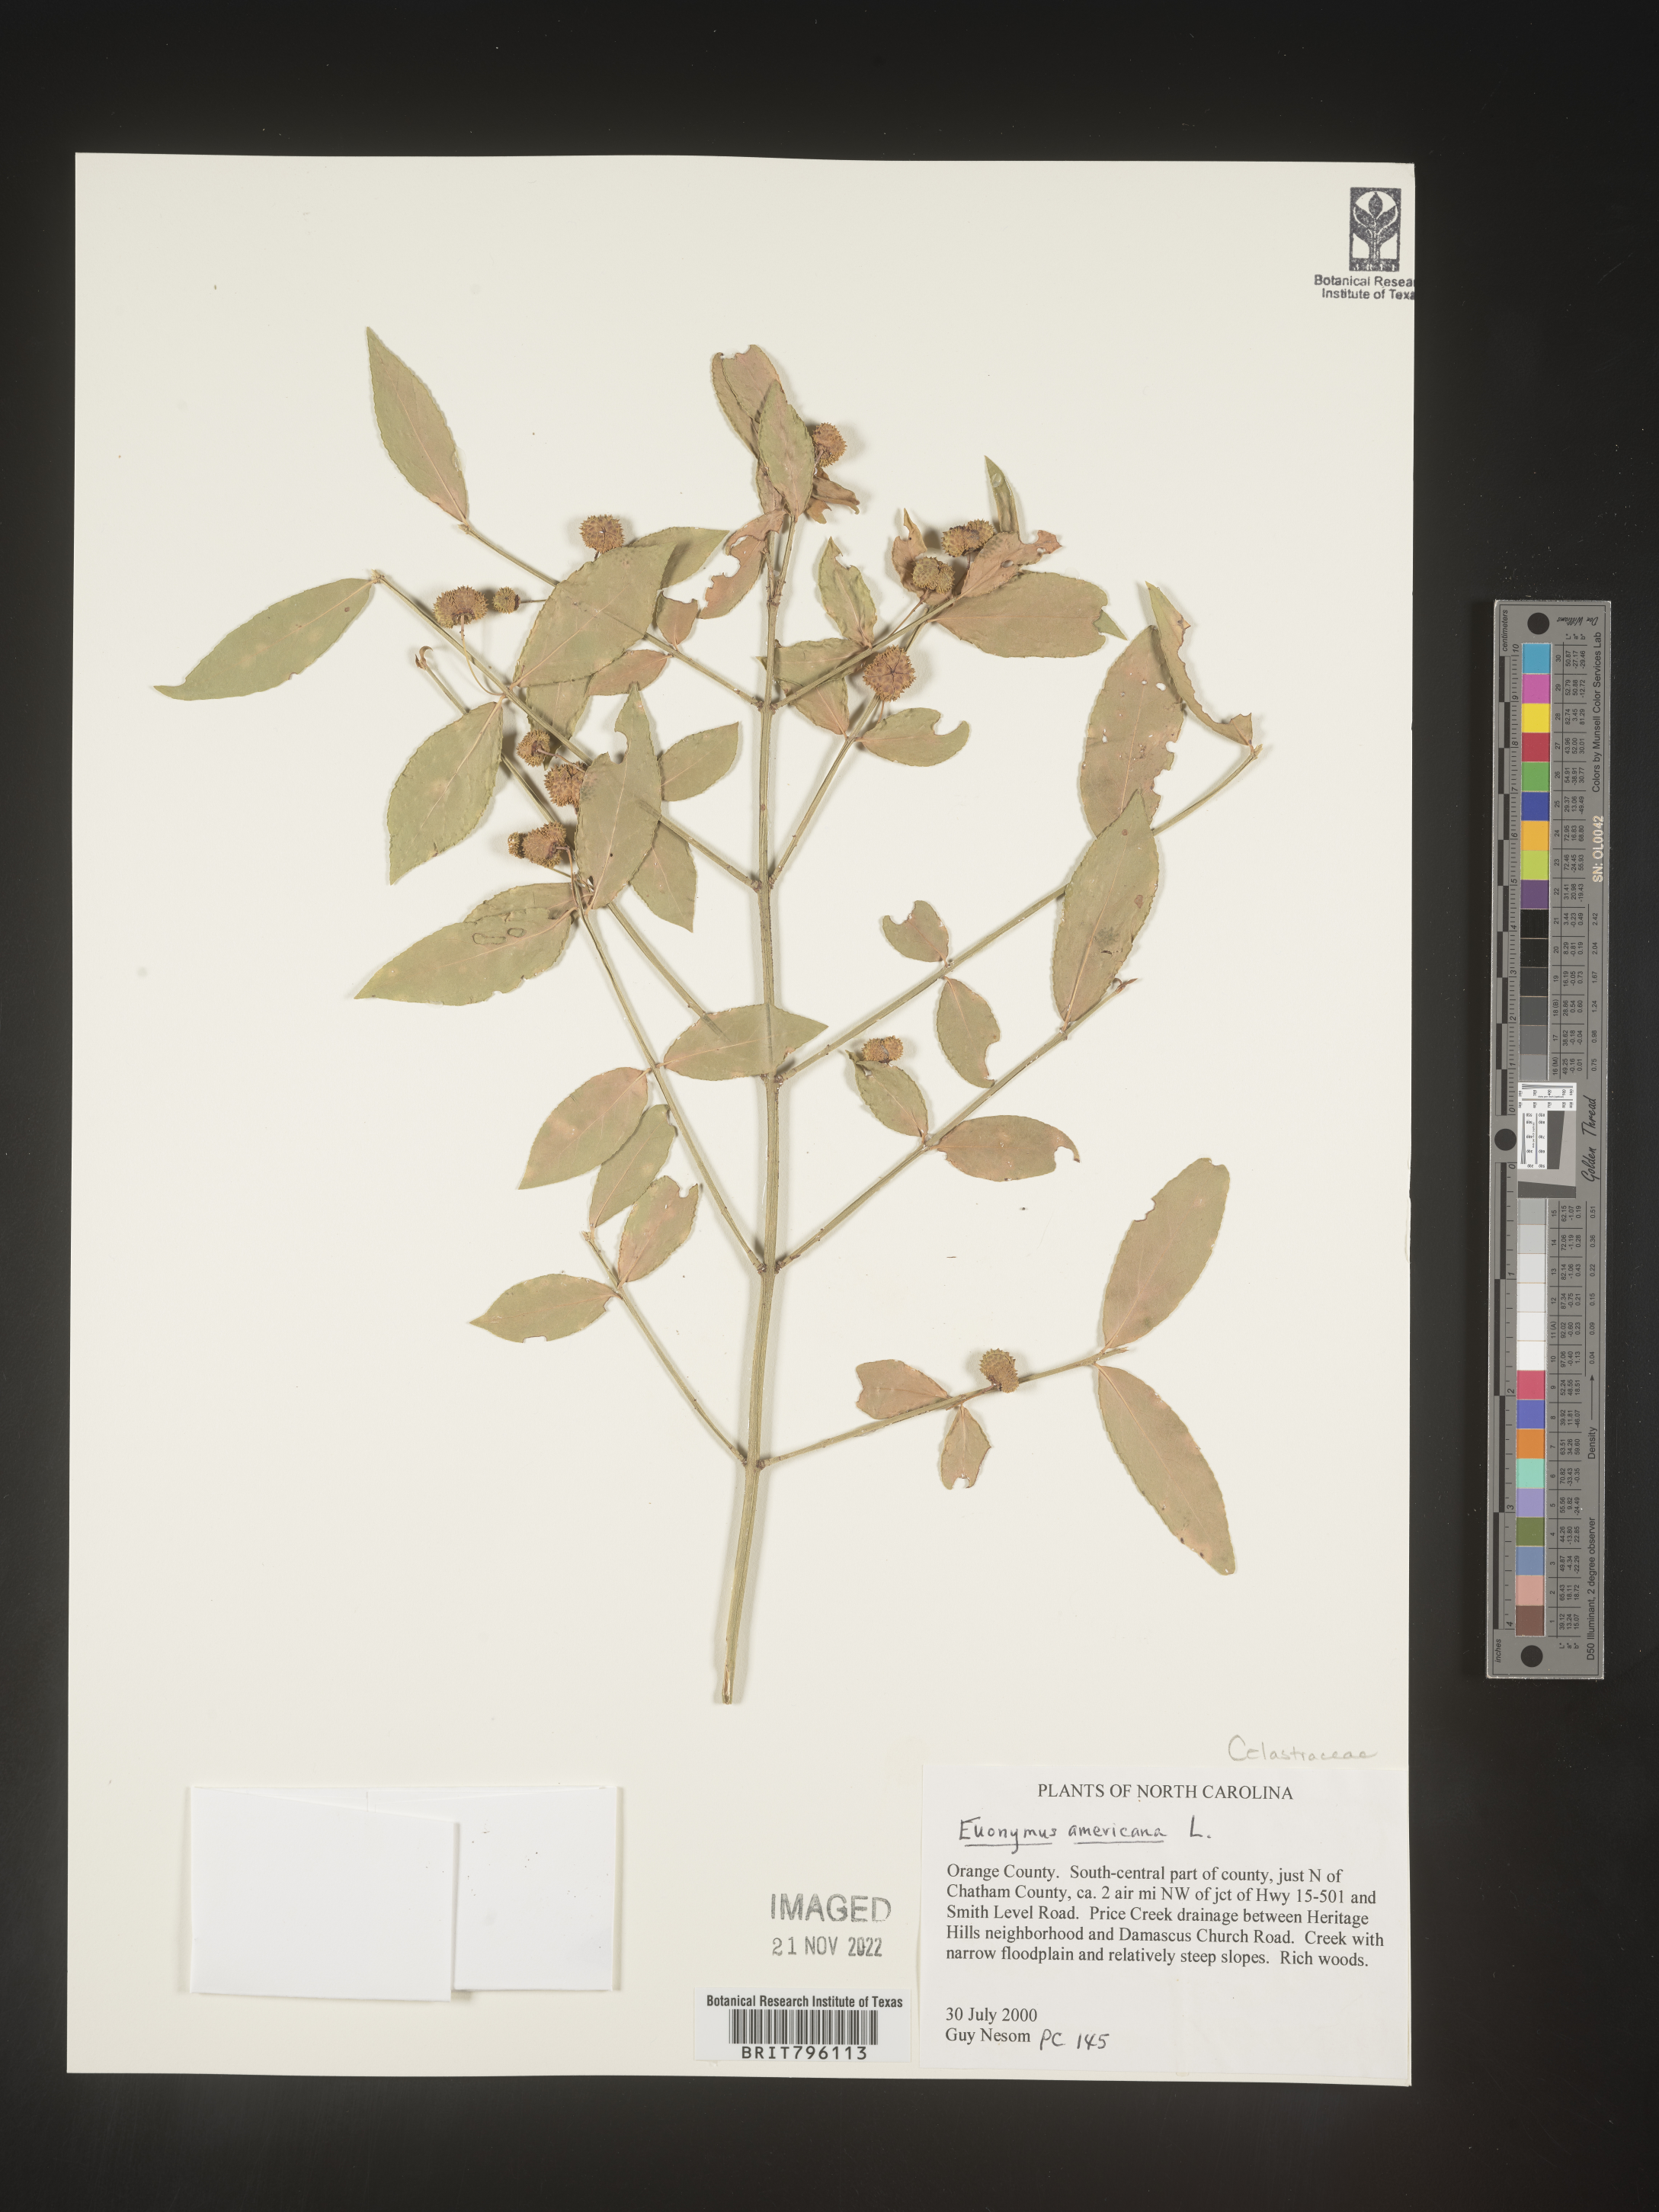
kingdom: Plantae
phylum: Tracheophyta
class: Magnoliopsida
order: Celastrales
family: Celastraceae
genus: Euonymus
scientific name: Euonymus americanus
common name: Bursting-heart
